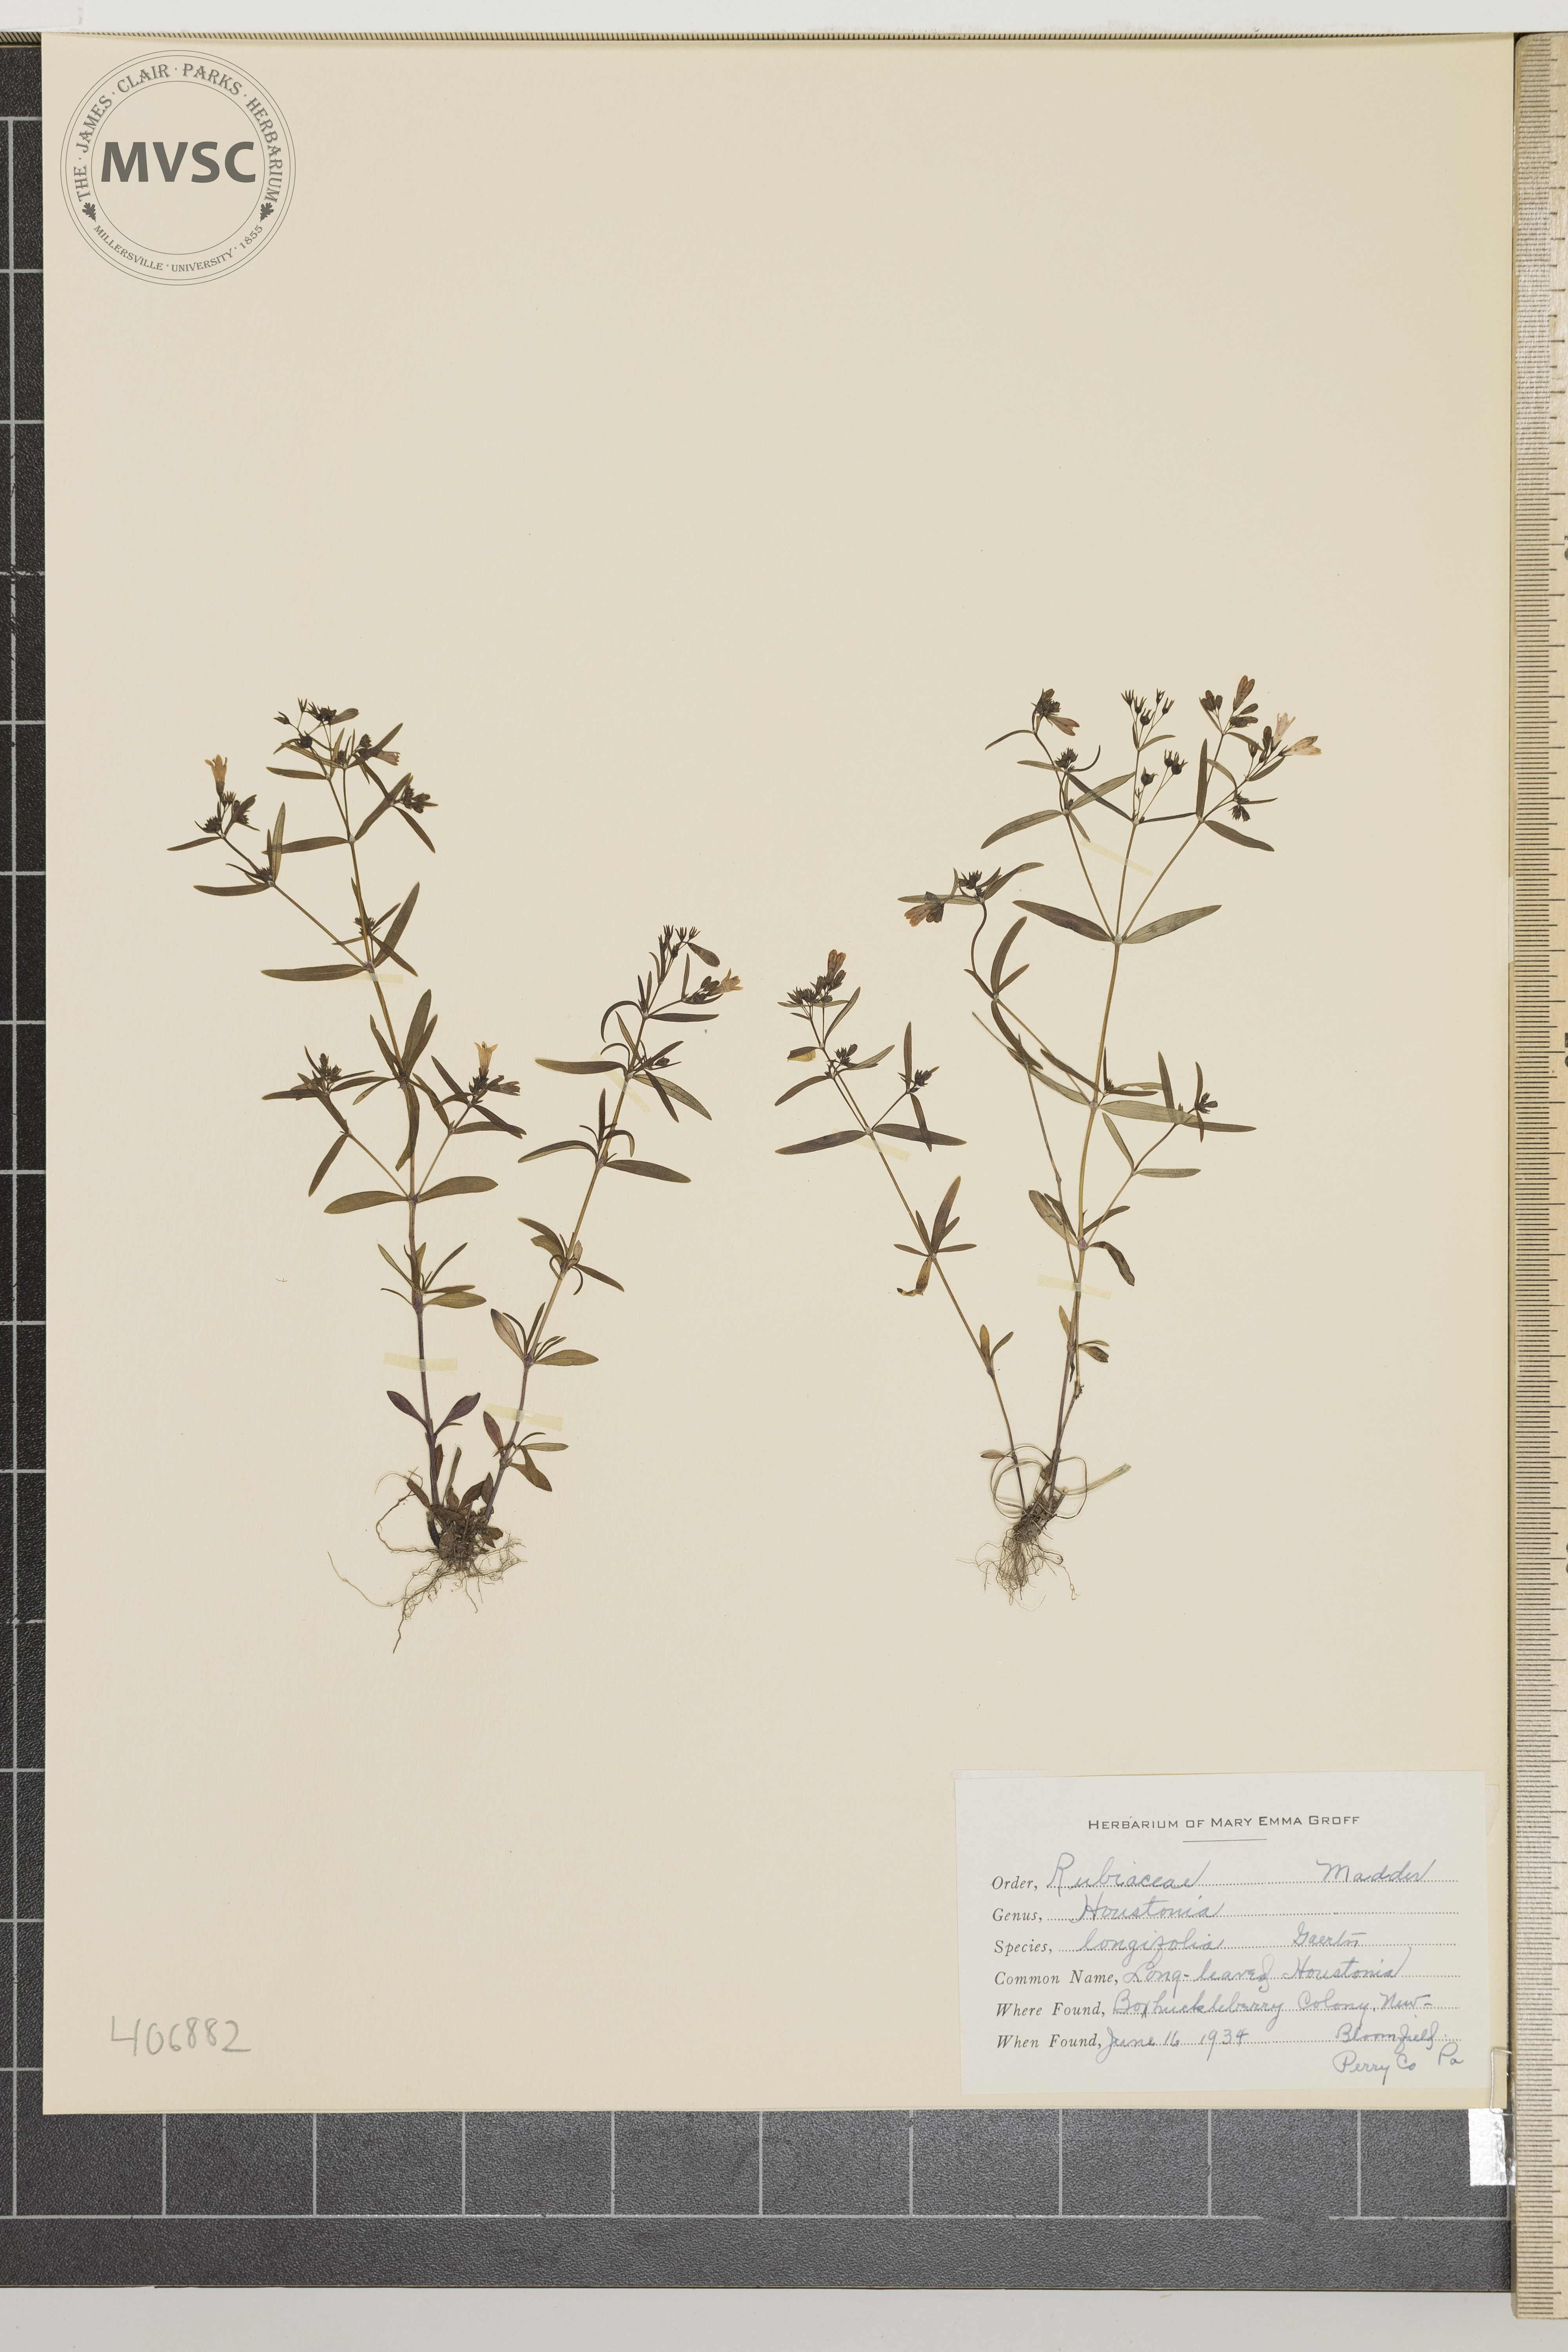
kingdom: Plantae
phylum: Tracheophyta
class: Magnoliopsida
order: Gentianales
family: Rubiaceae
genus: Houstonia
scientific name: Houstonia longifolia
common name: Long-leaved Houstonia
